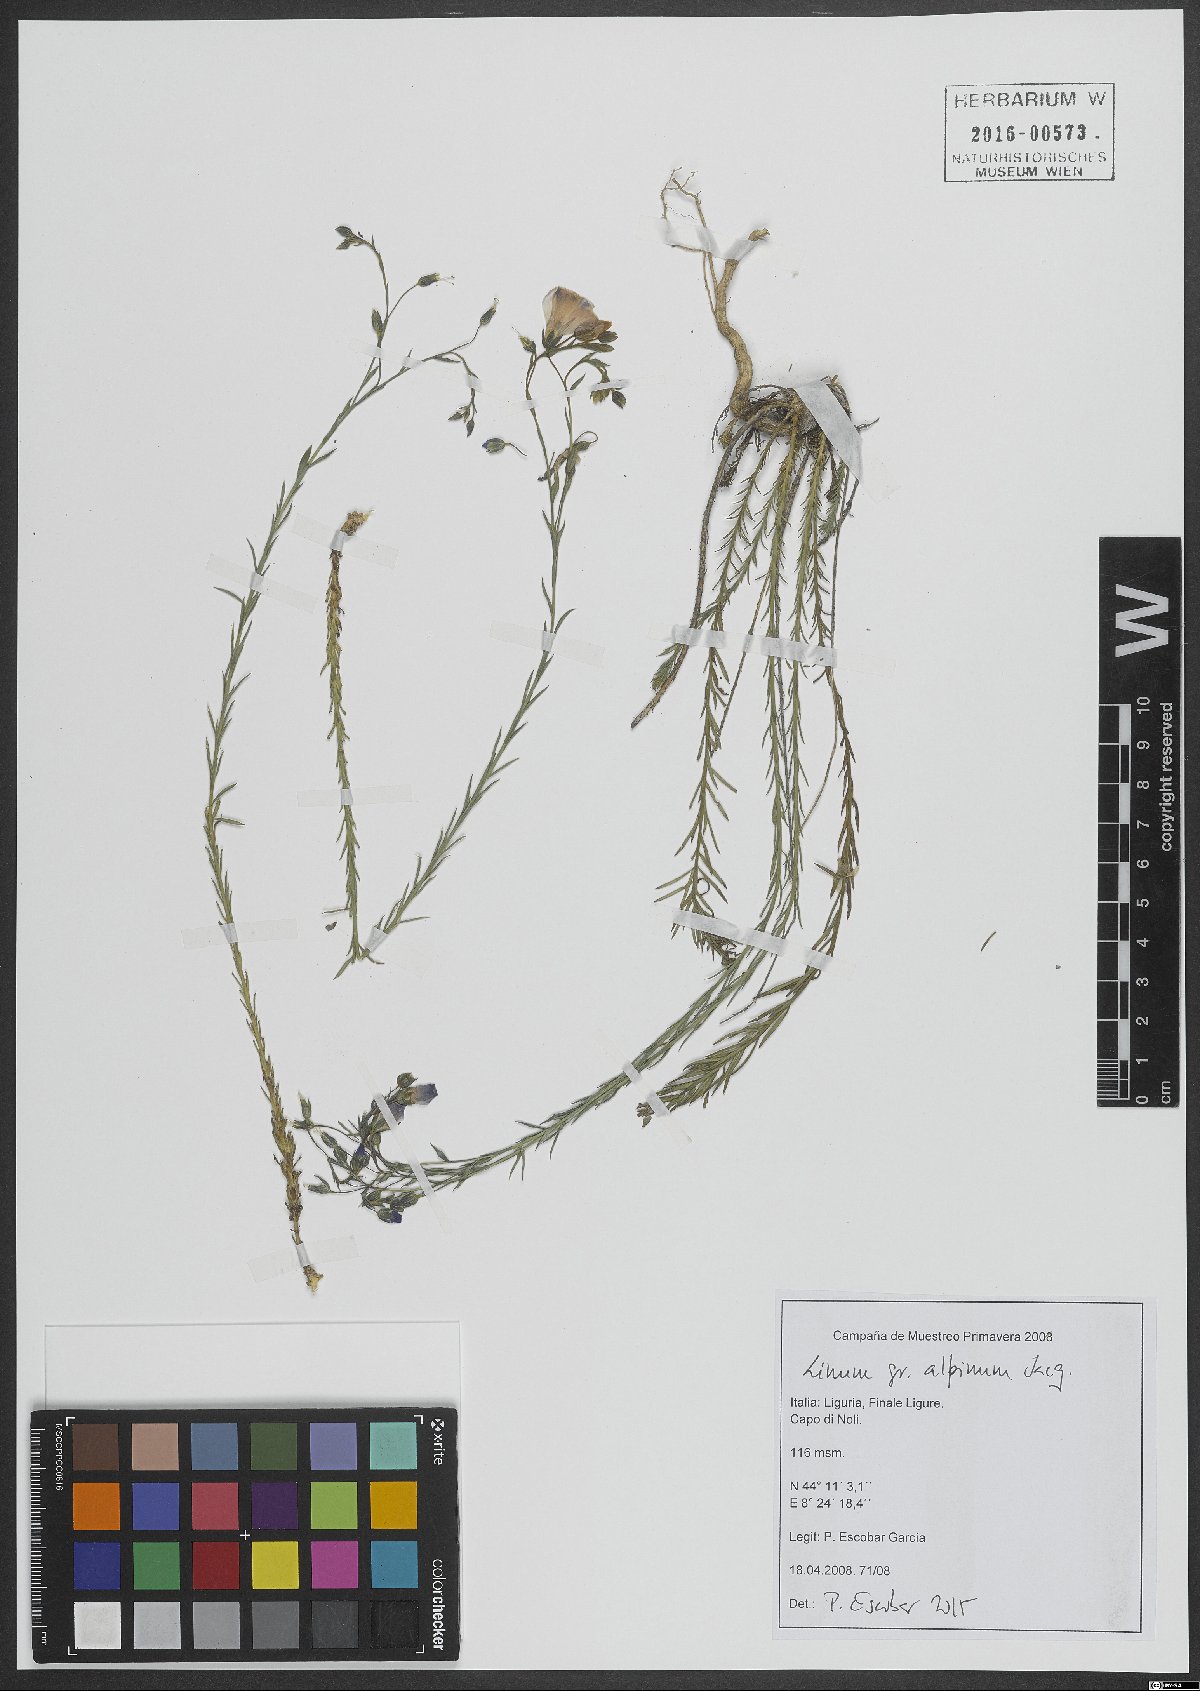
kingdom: Plantae
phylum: Tracheophyta
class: Magnoliopsida
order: Malpighiales
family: Linaceae
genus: Linum
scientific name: Linum alpinum
